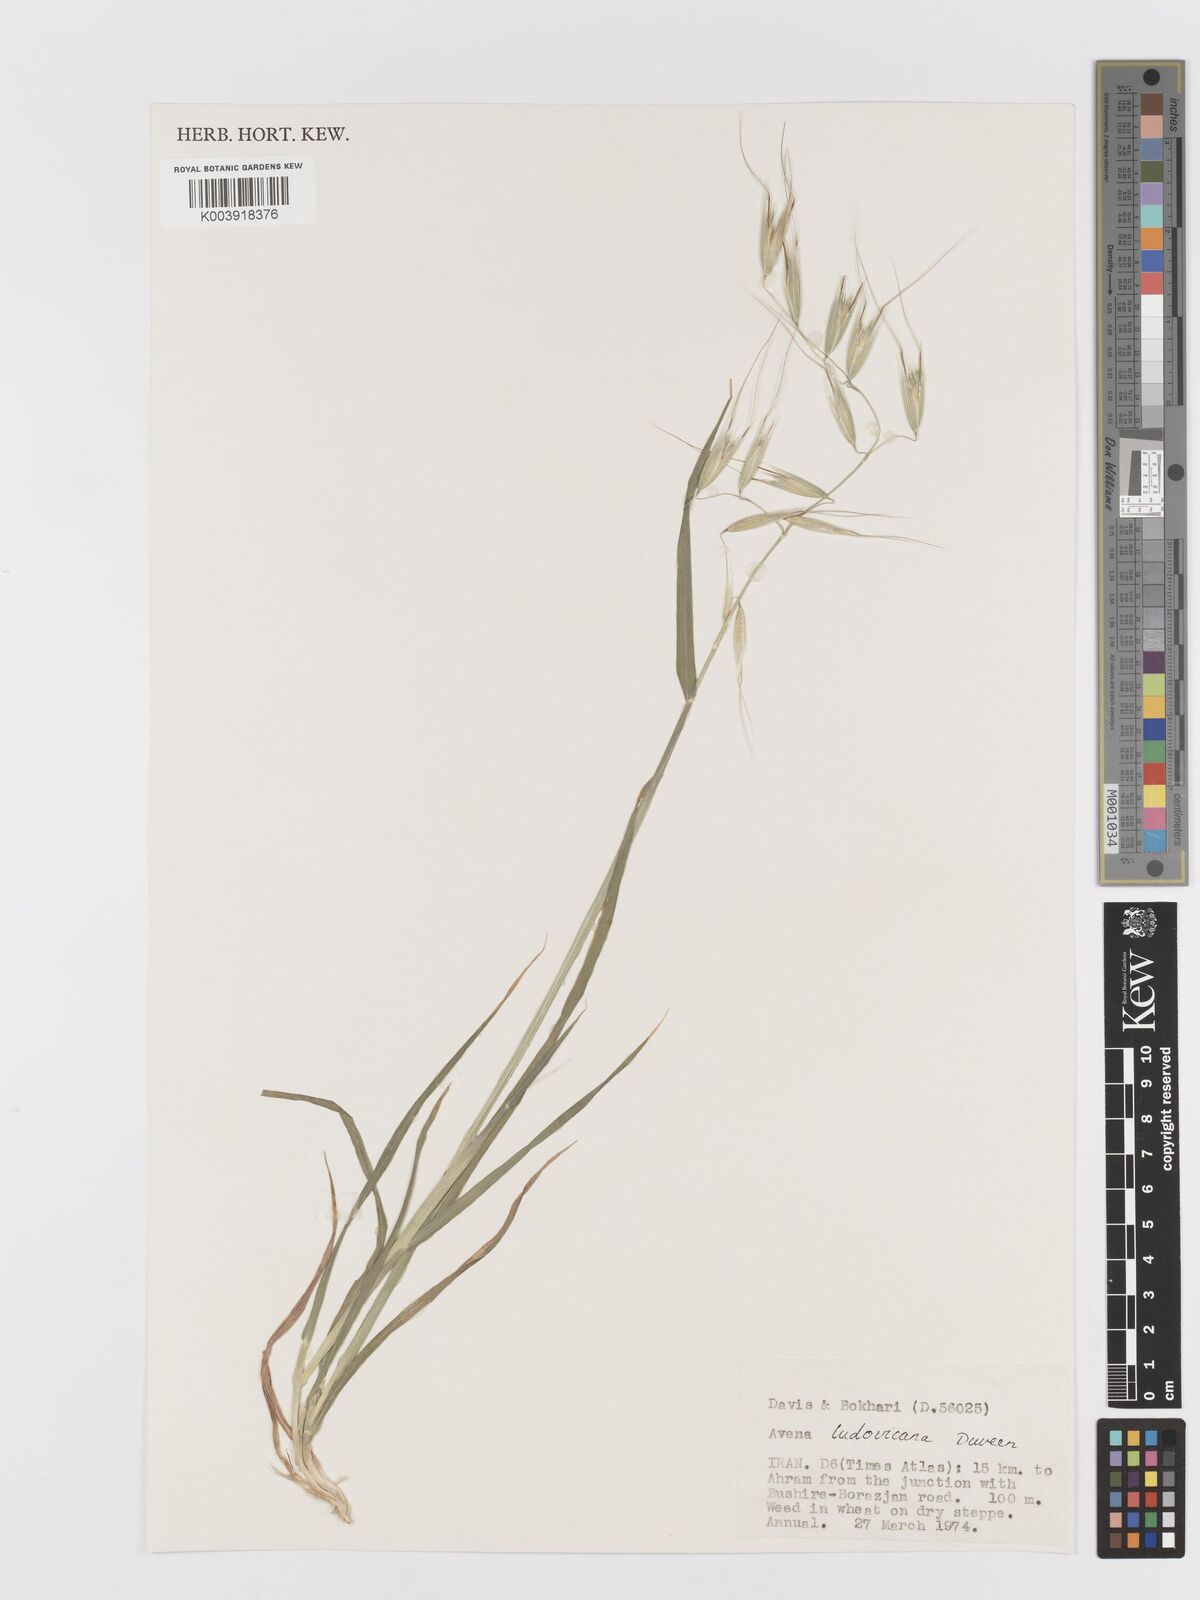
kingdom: Plantae
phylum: Tracheophyta
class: Liliopsida
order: Poales
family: Poaceae
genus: Avena
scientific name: Avena sterilis
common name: Animated oat
